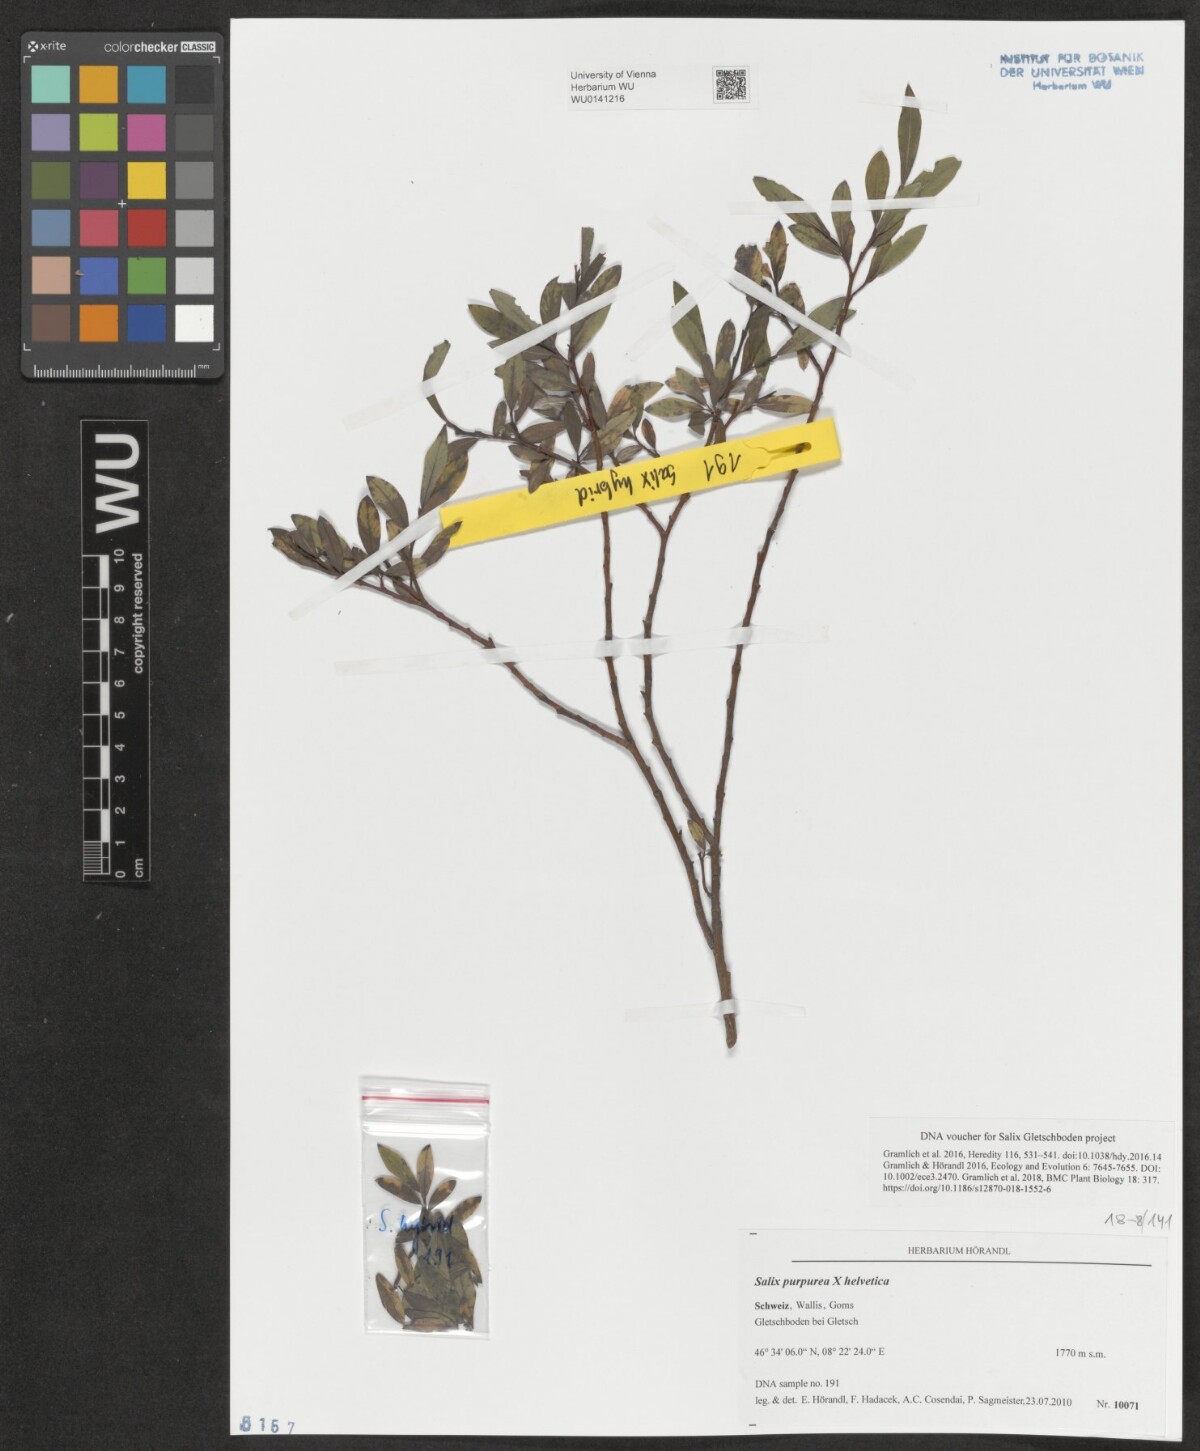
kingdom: Plantae
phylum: Tracheophyta
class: Magnoliopsida
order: Malpighiales
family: Salicaceae
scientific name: Salicaceae
